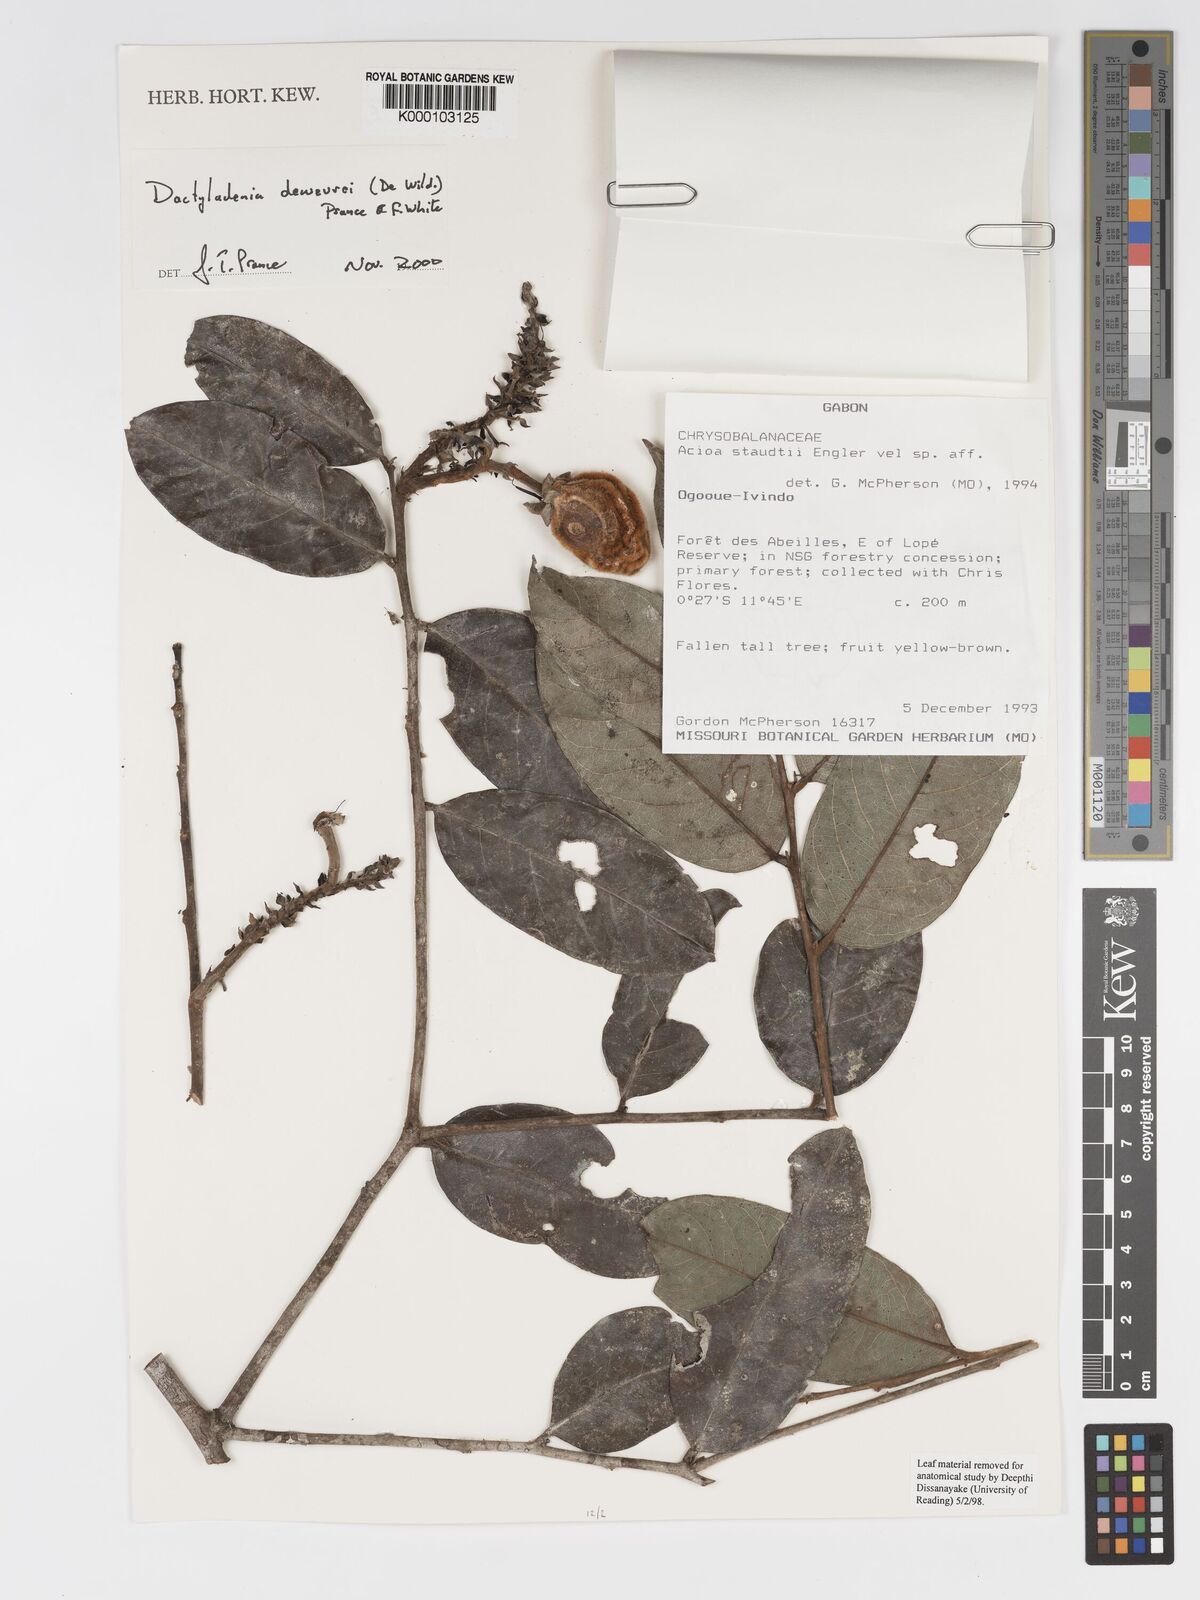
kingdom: Plantae
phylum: Tracheophyta
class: Magnoliopsida
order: Malpighiales
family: Chrysobalanaceae
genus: Dactyladenia
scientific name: Dactyladenia dewevrei
